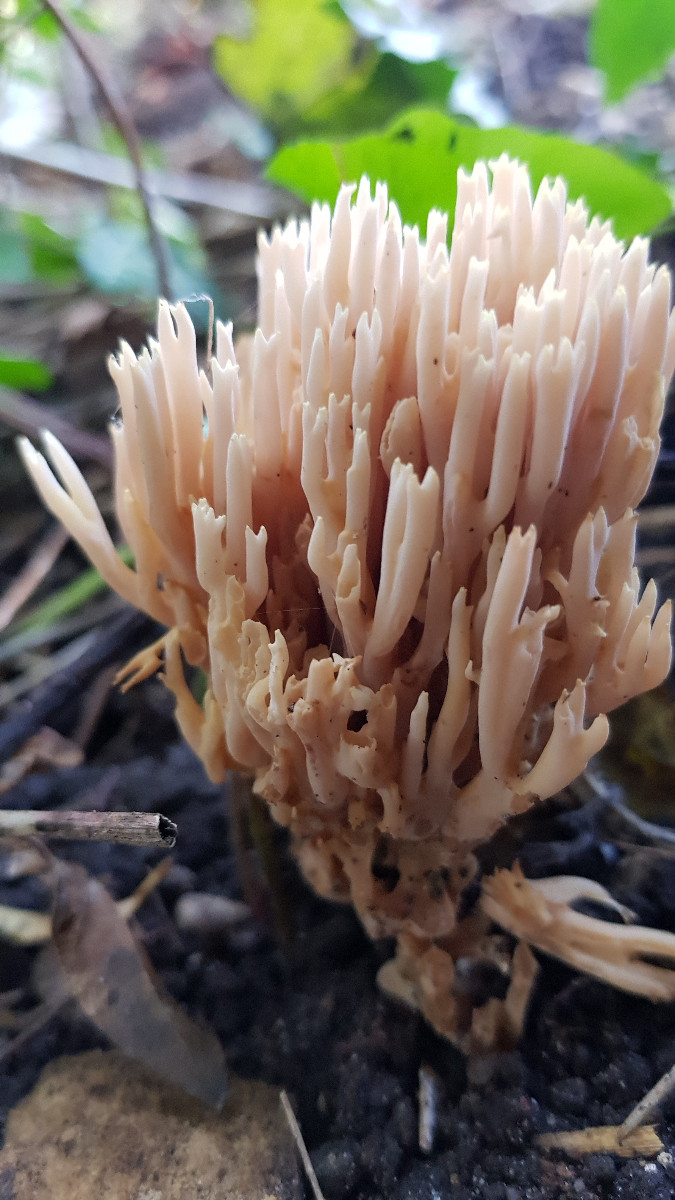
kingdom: Fungi
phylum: Basidiomycota
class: Agaricomycetes
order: Gomphales
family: Gomphaceae
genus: Ramaria
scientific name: Ramaria stricta
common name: rank koralsvamp
